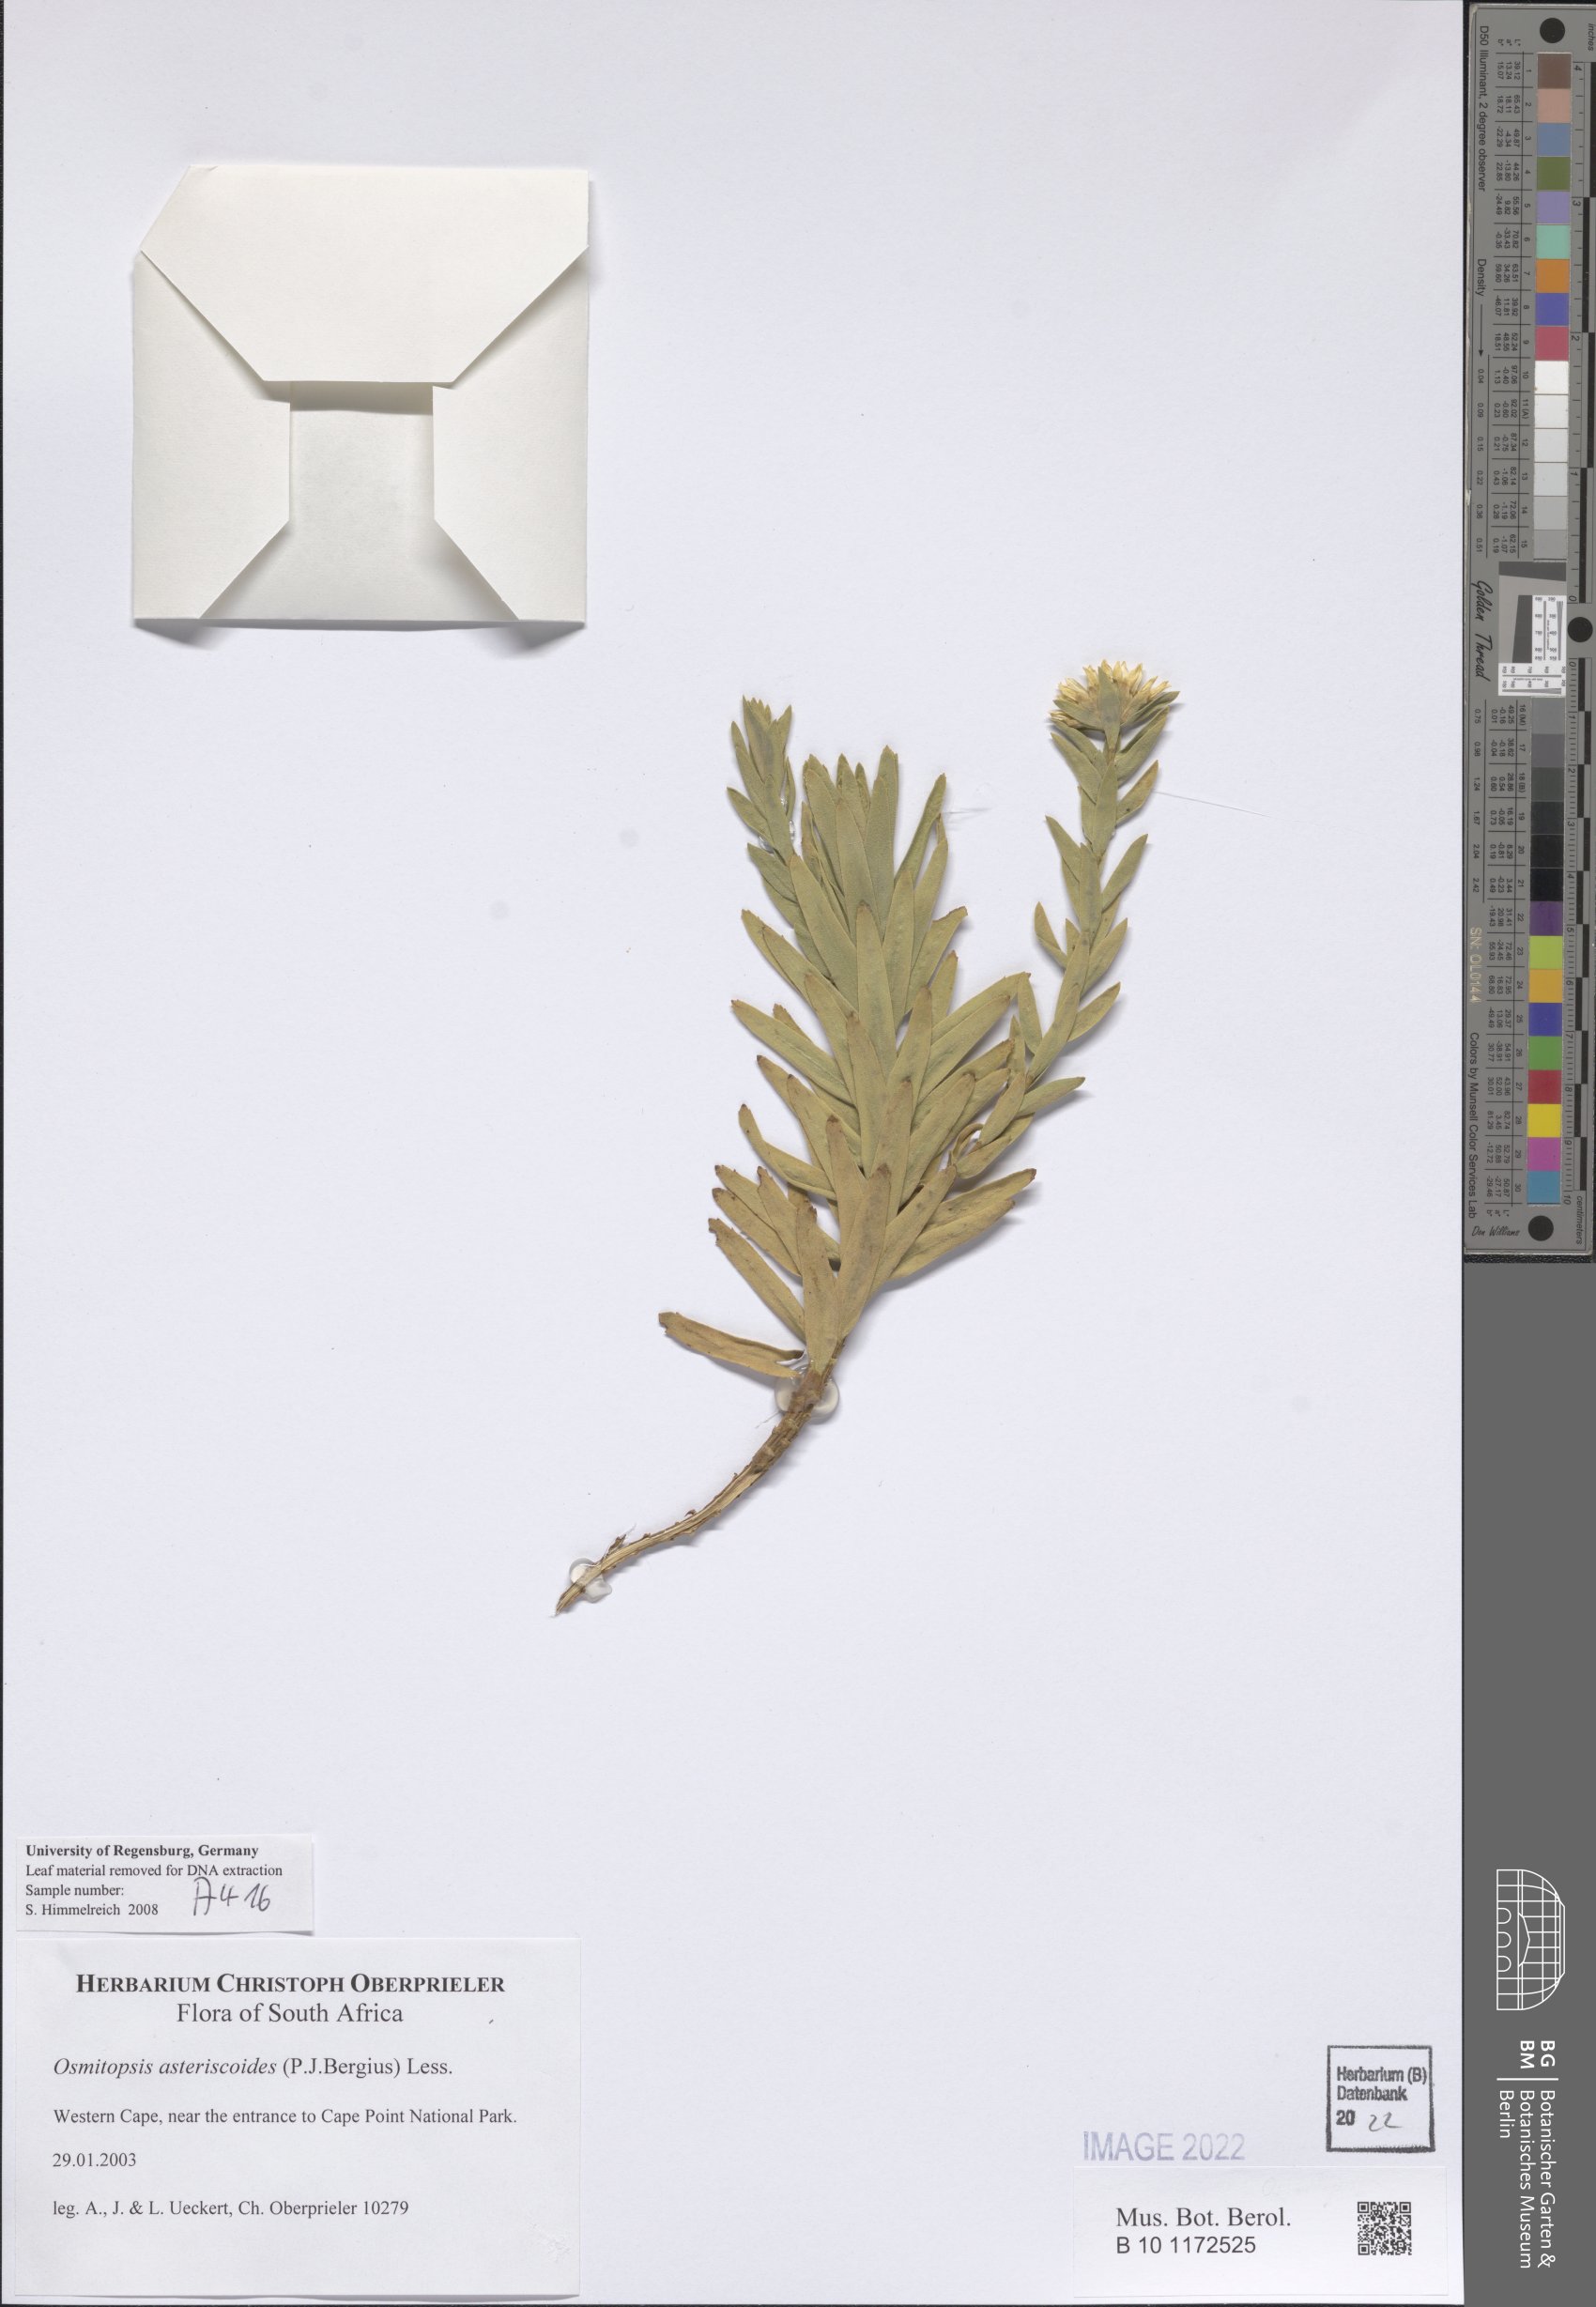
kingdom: Plantae
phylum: Tracheophyta
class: Magnoliopsida
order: Asterales
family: Asteraceae
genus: Osmitopsis
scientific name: Osmitopsis asteriscoides
